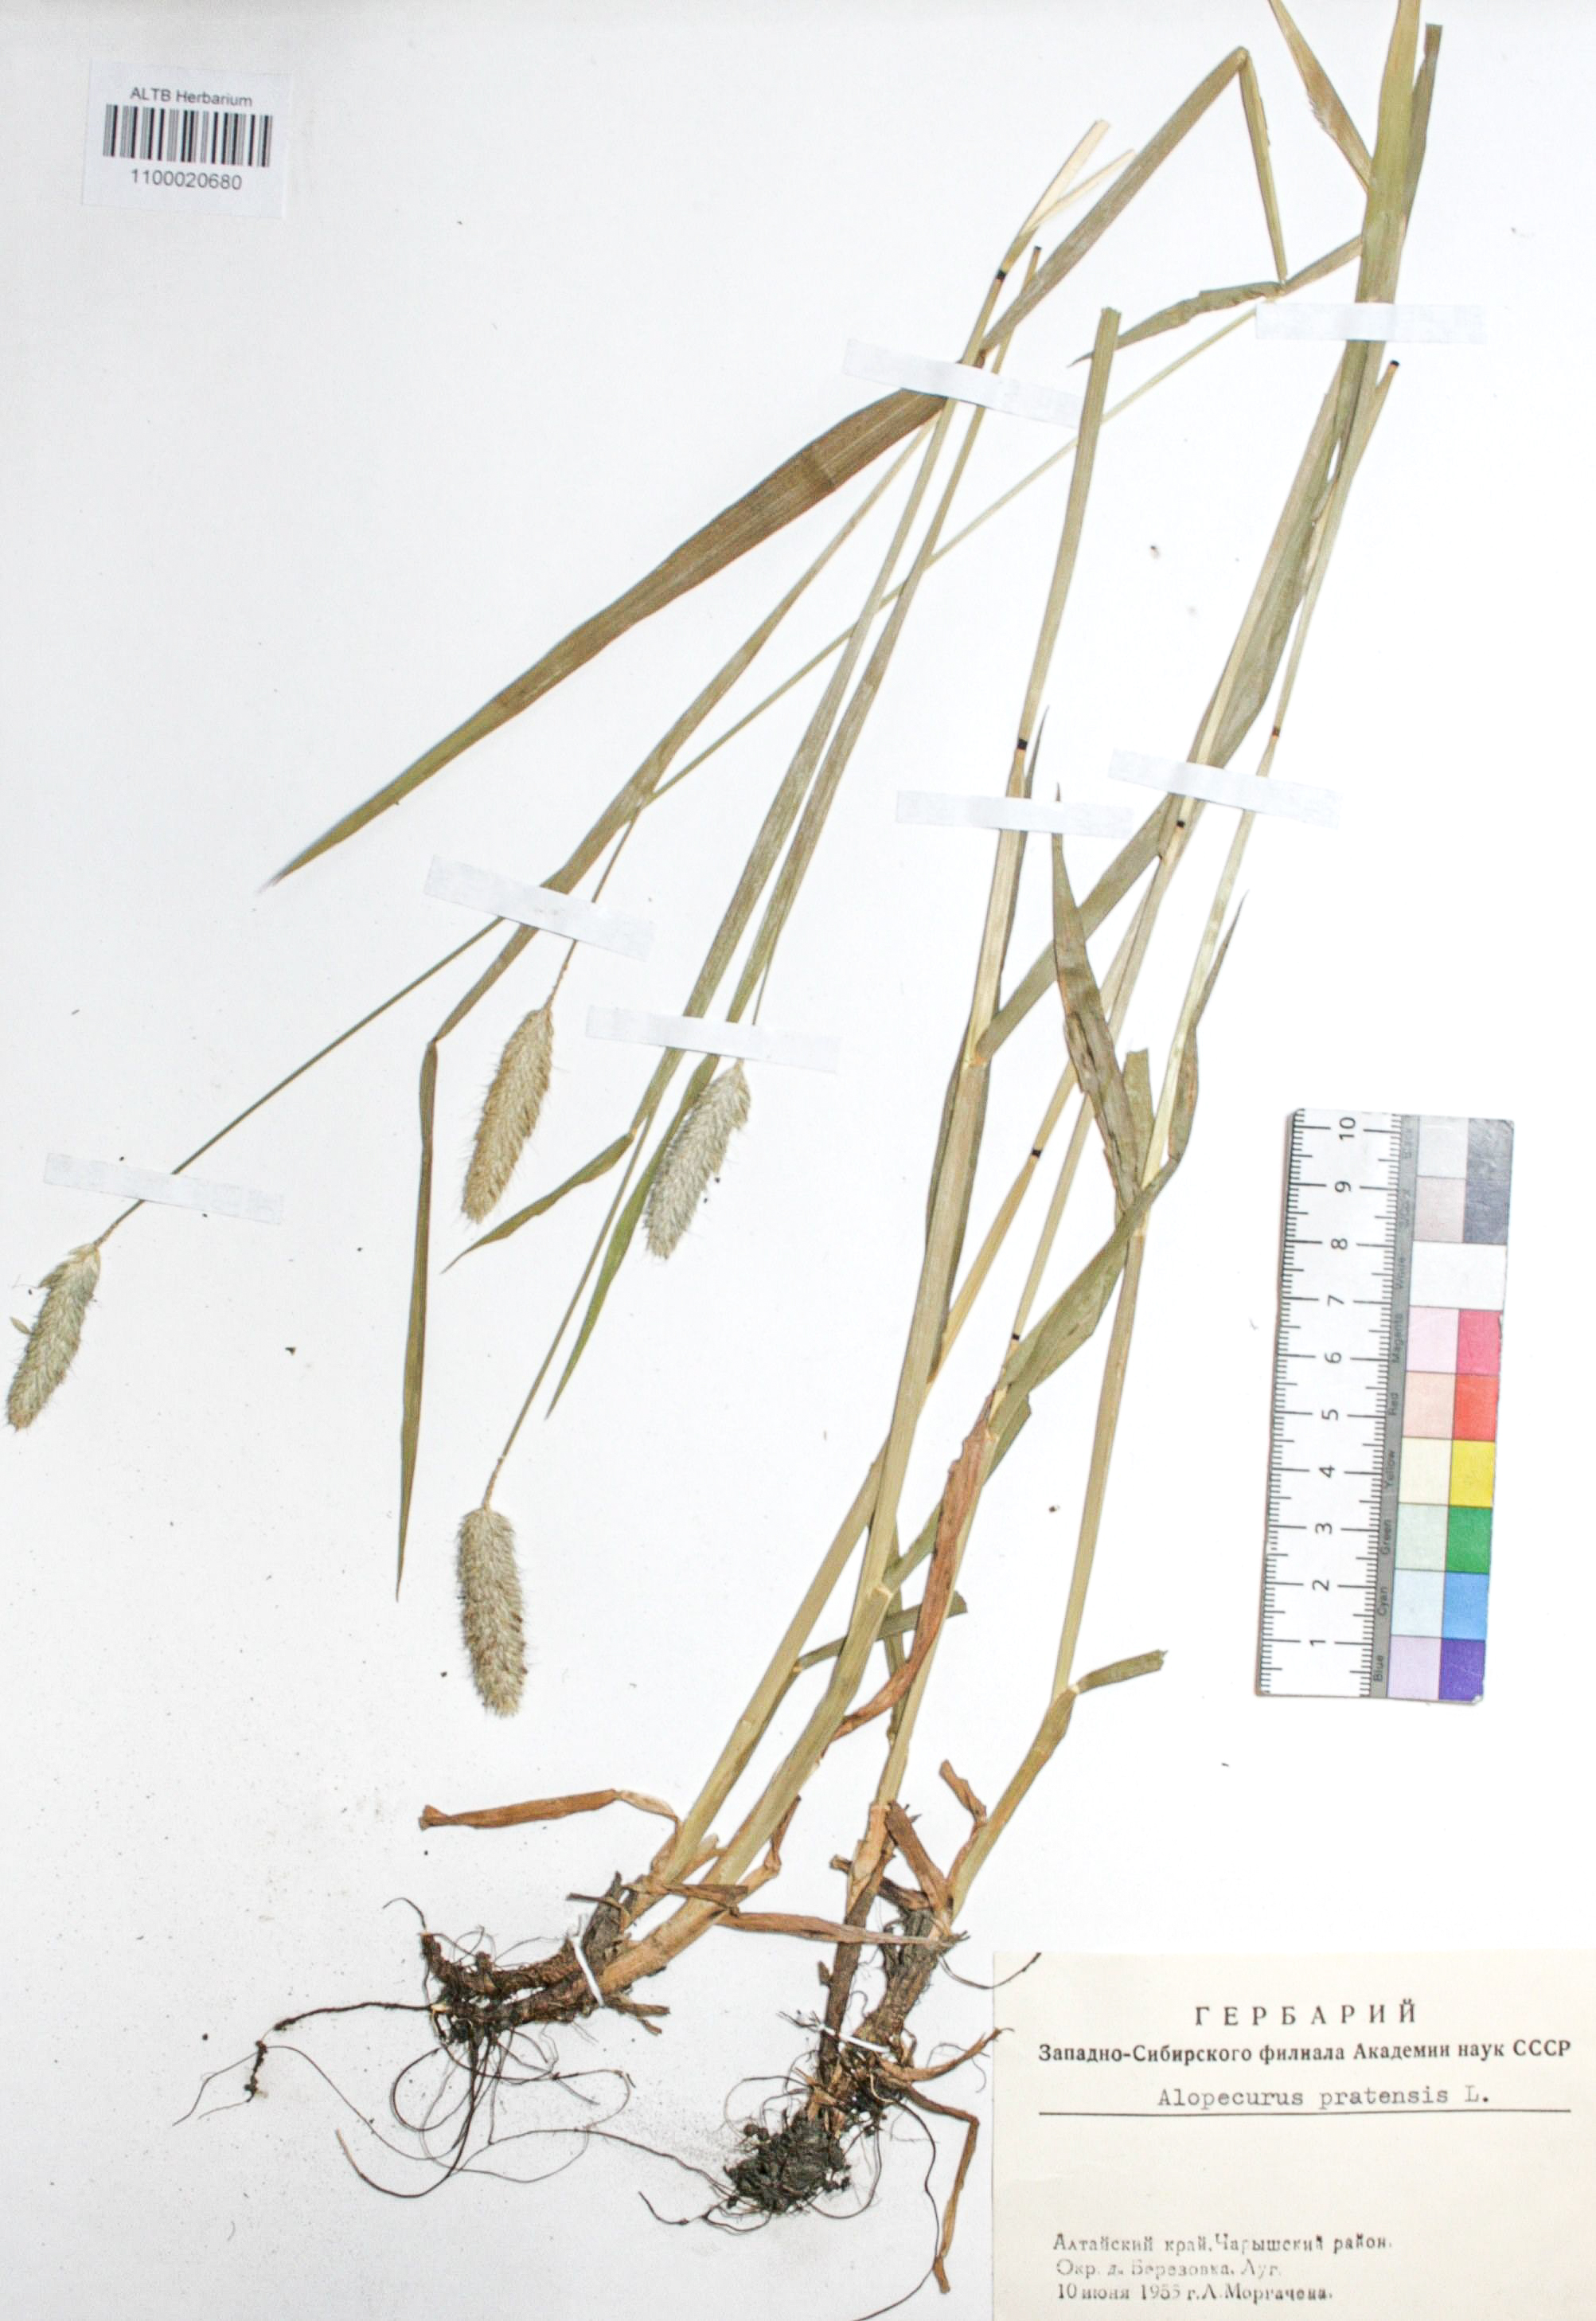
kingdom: Plantae
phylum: Tracheophyta
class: Liliopsida
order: Poales
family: Poaceae
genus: Alopecurus
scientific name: Alopecurus pratensis
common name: Meadow foxtail
